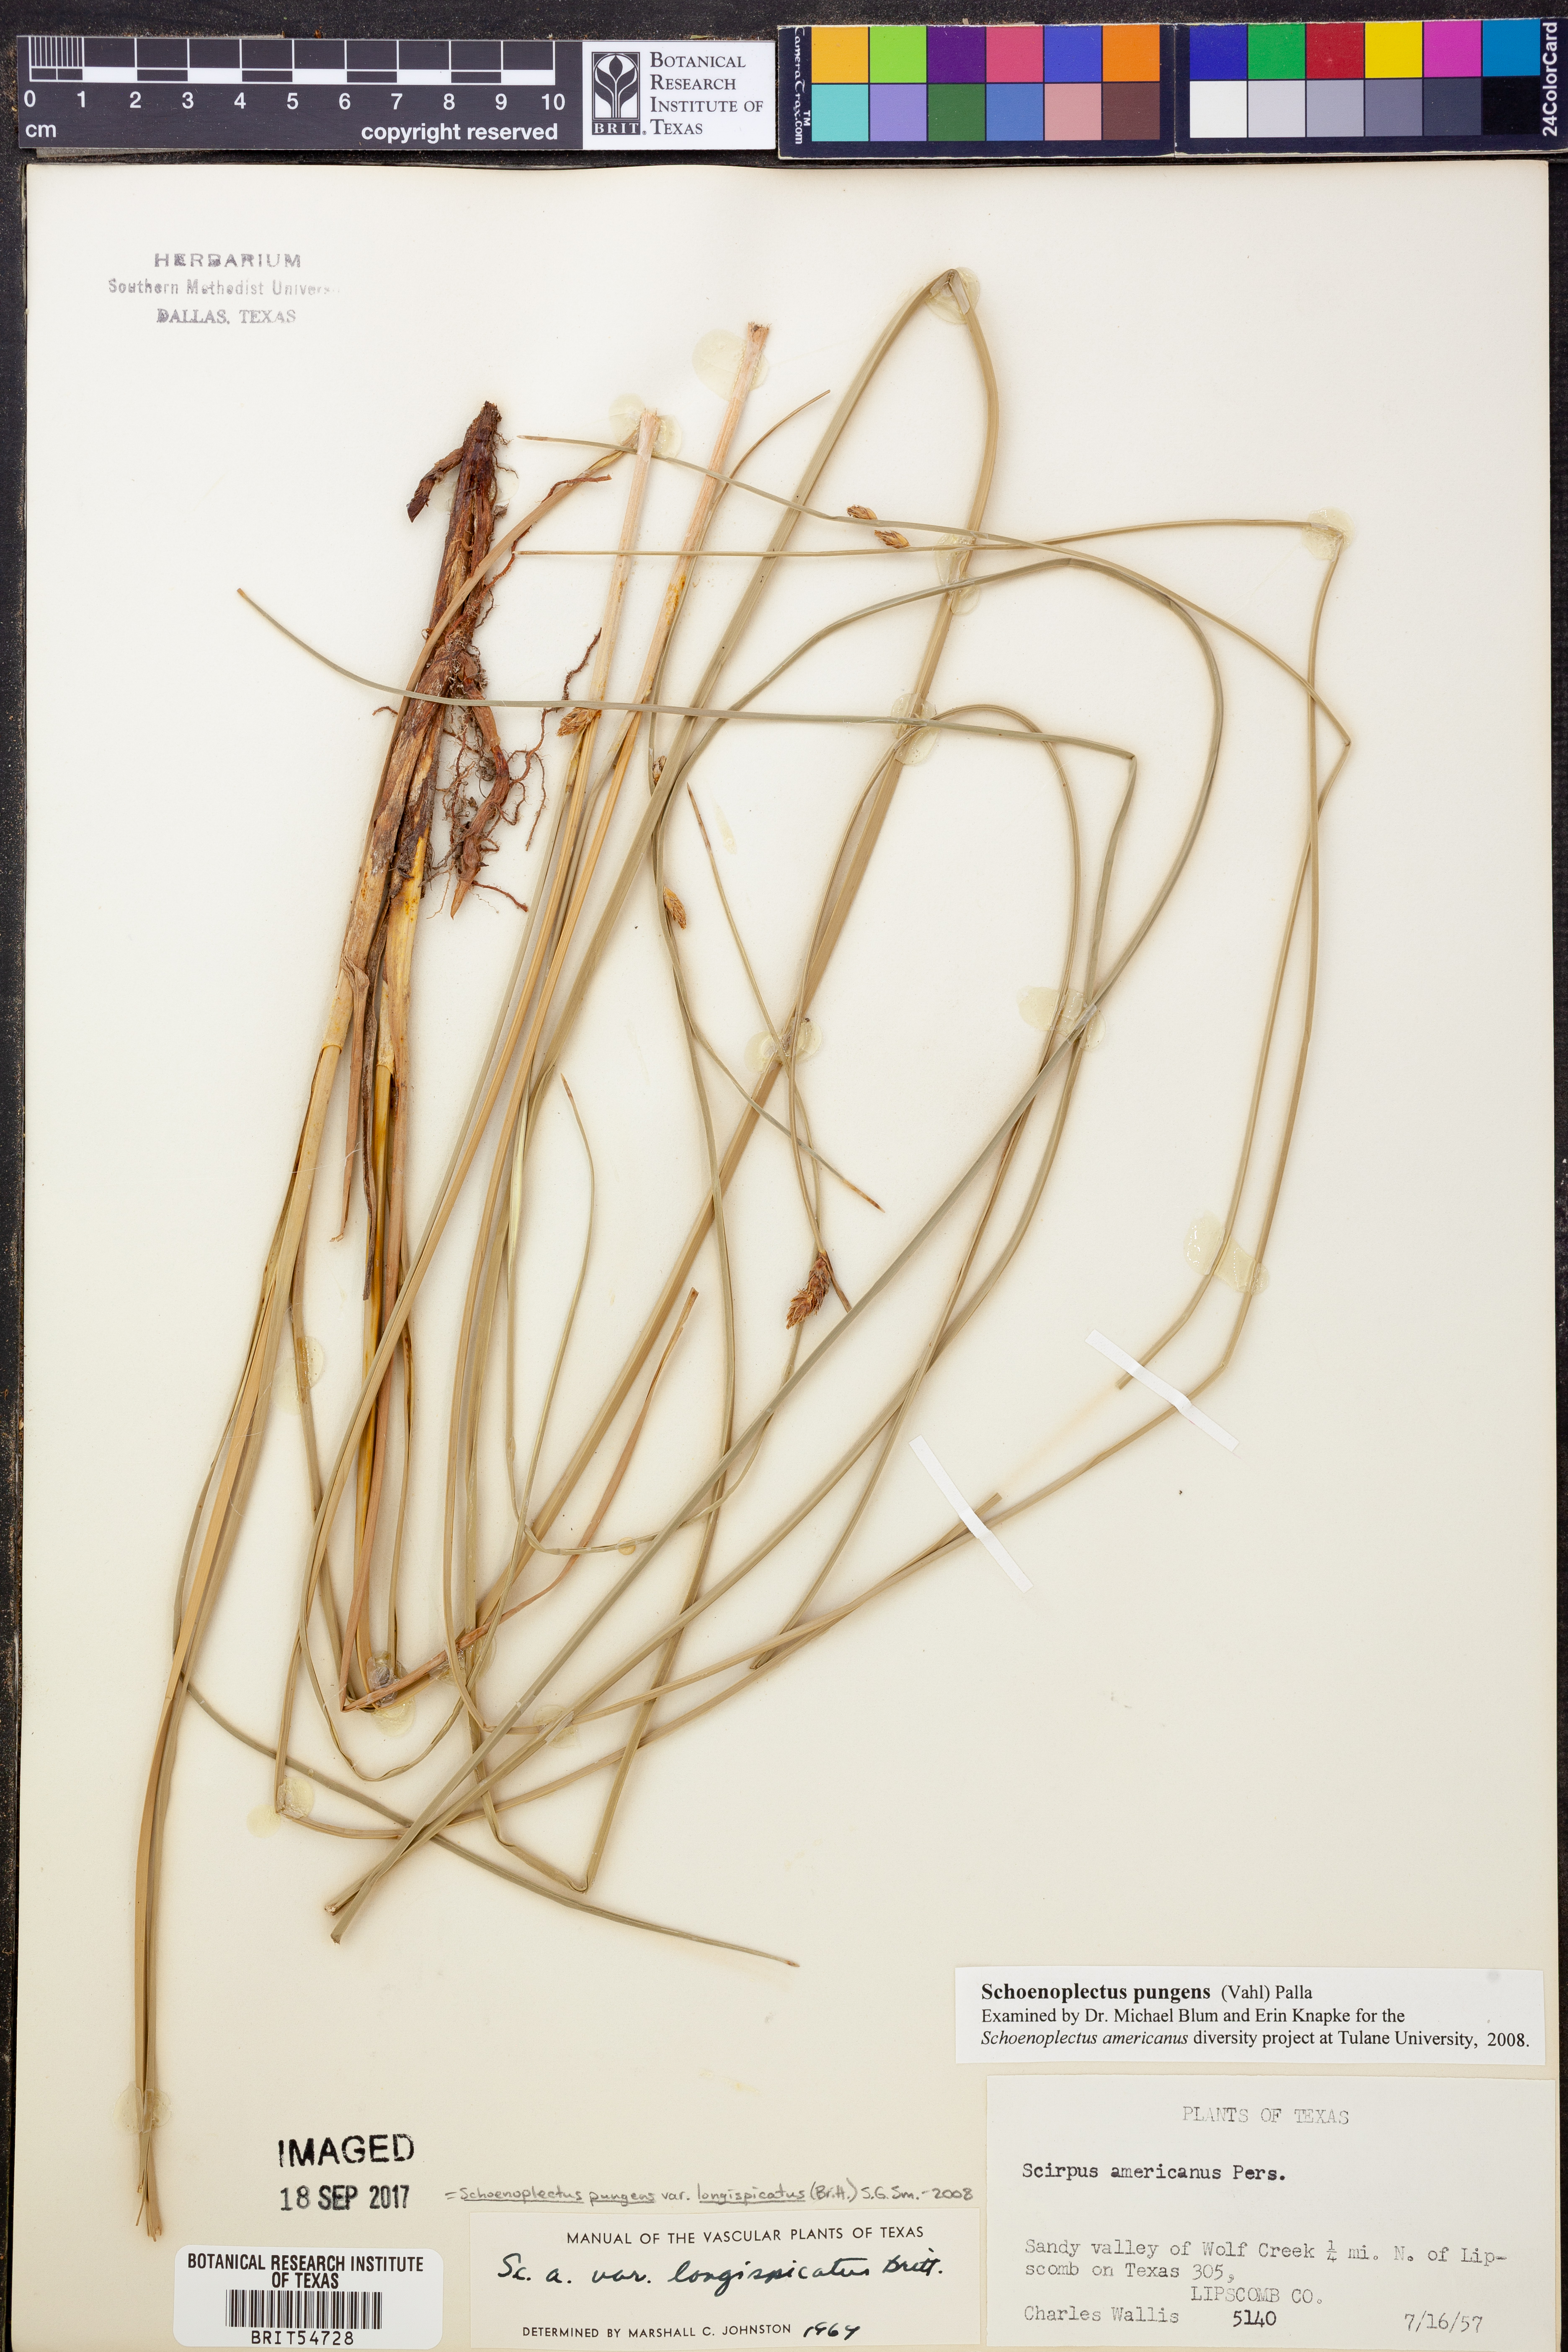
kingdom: Plantae
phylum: Tracheophyta
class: Liliopsida
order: Poales
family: Cyperaceae
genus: Schoenoplectus
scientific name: Schoenoplectus pungens
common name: Sharp club-rush
